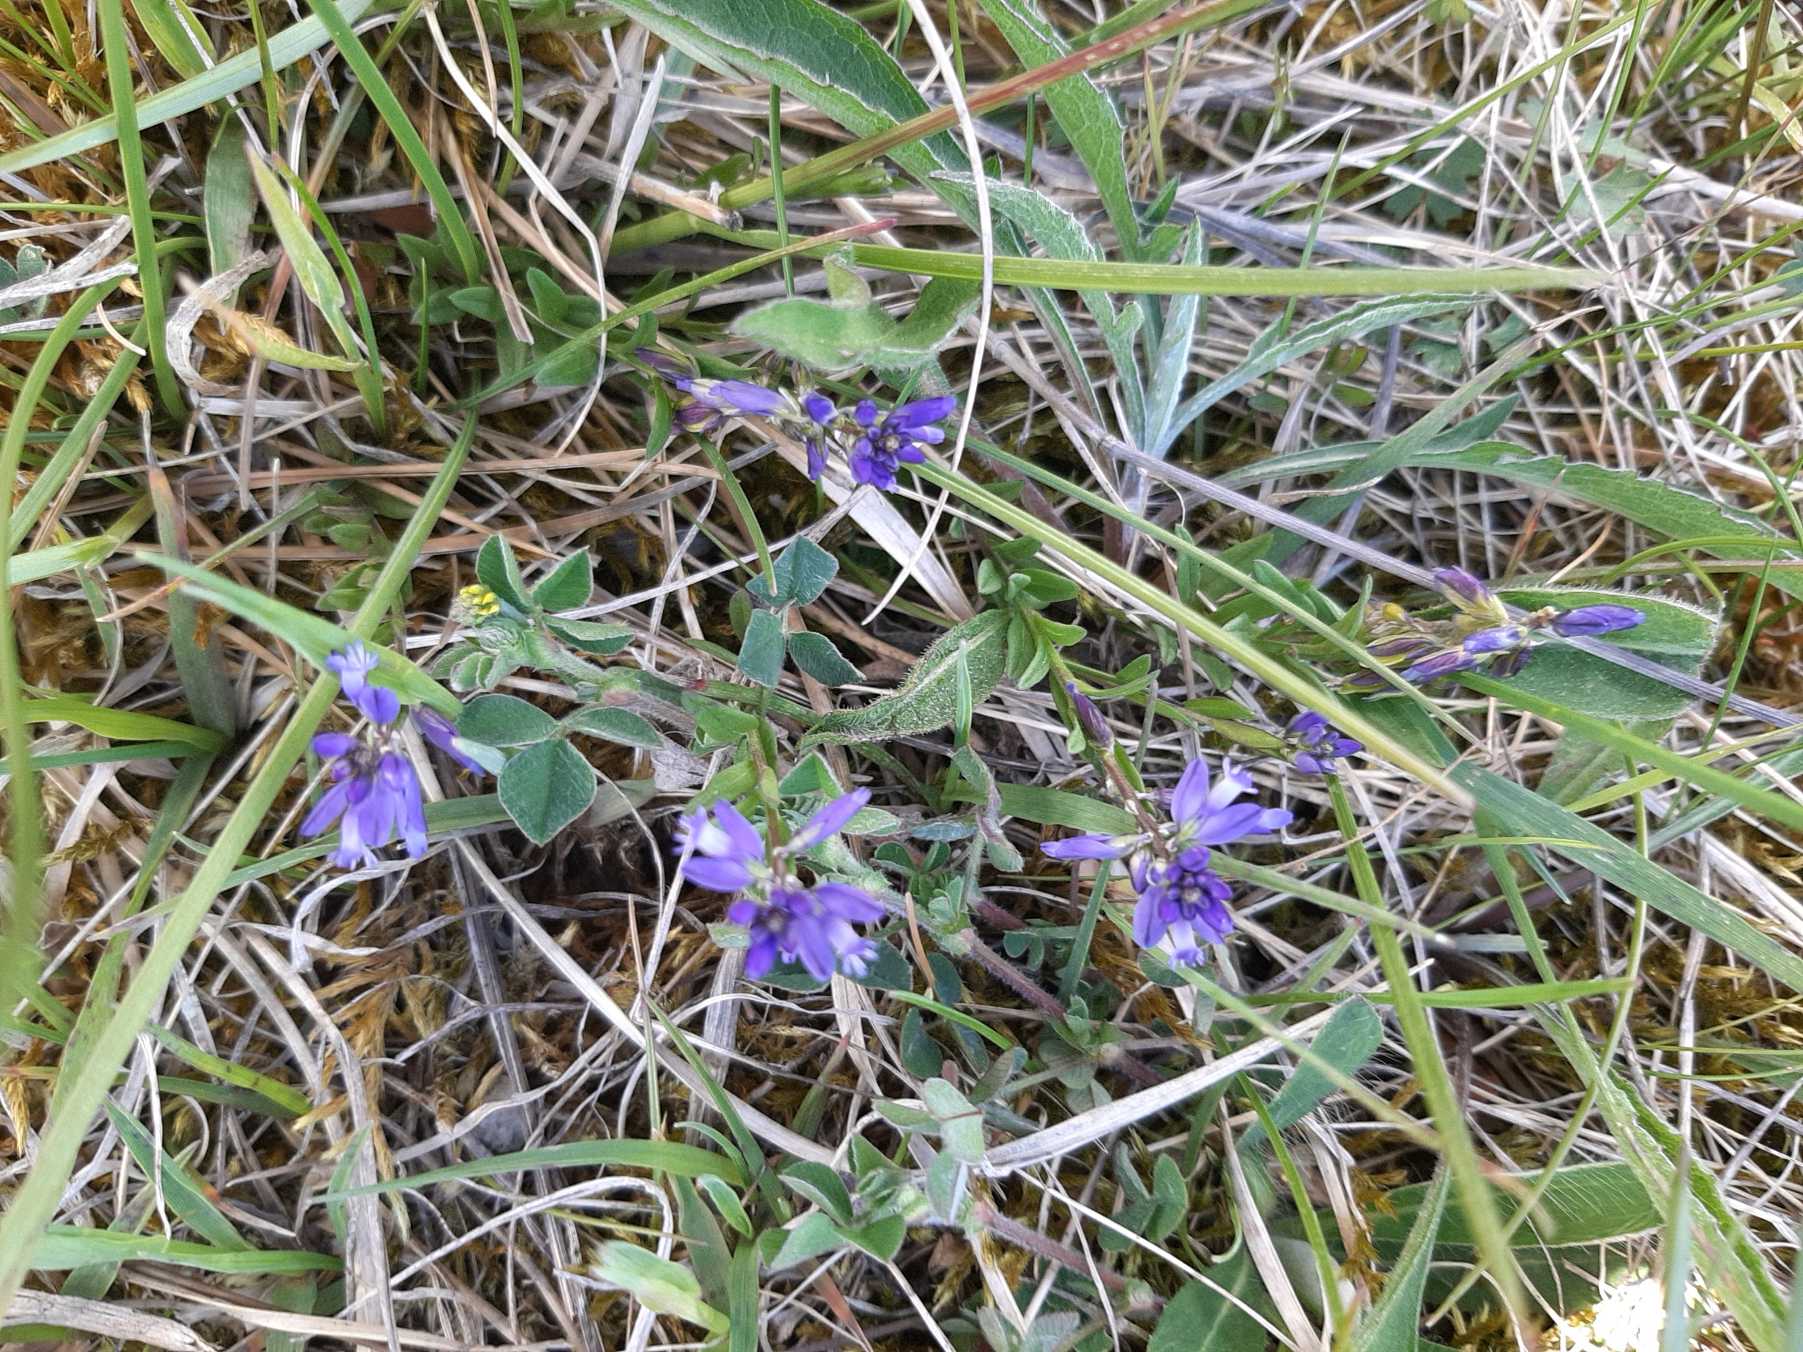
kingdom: Plantae
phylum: Tracheophyta
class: Magnoliopsida
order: Fabales
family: Polygalaceae
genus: Polygala
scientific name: Polygala vulgaris
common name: Almindelig mælkeurt
